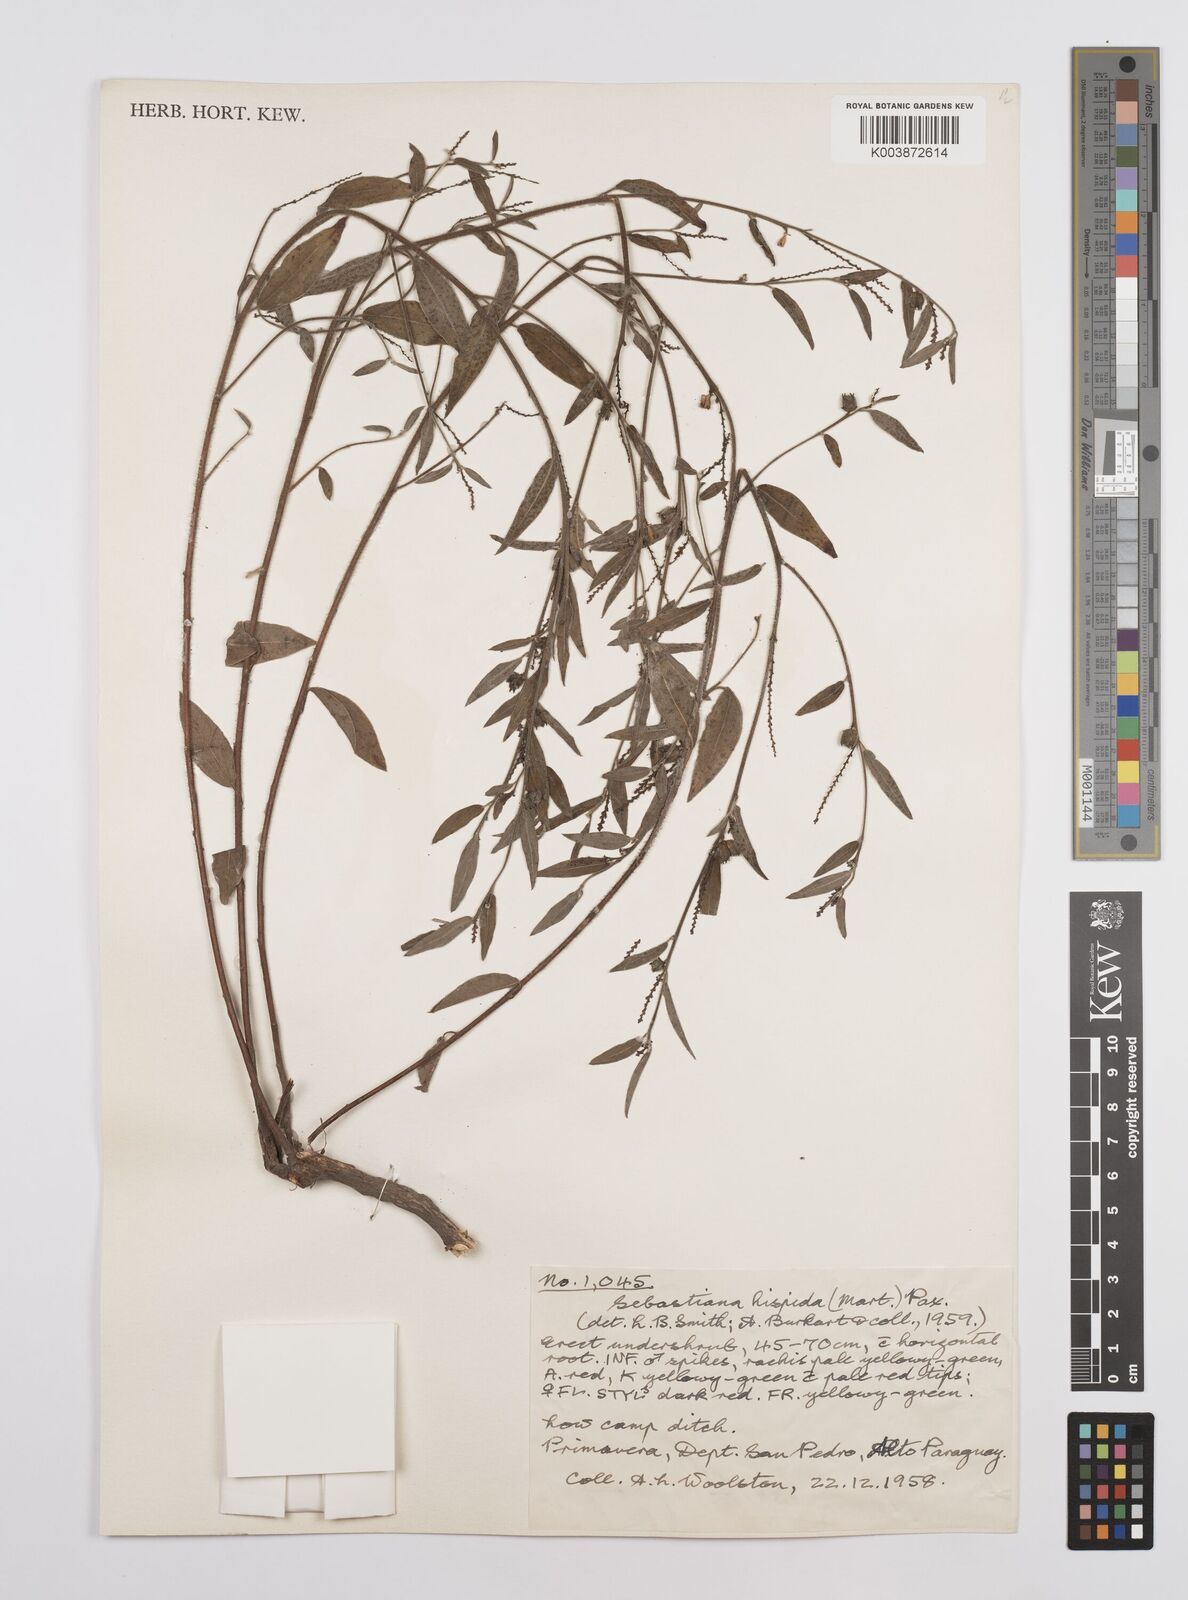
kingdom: Plantae
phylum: Tracheophyta
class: Magnoliopsida
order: Malpighiales
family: Euphorbiaceae
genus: Microstachys
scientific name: Microstachys hispida
